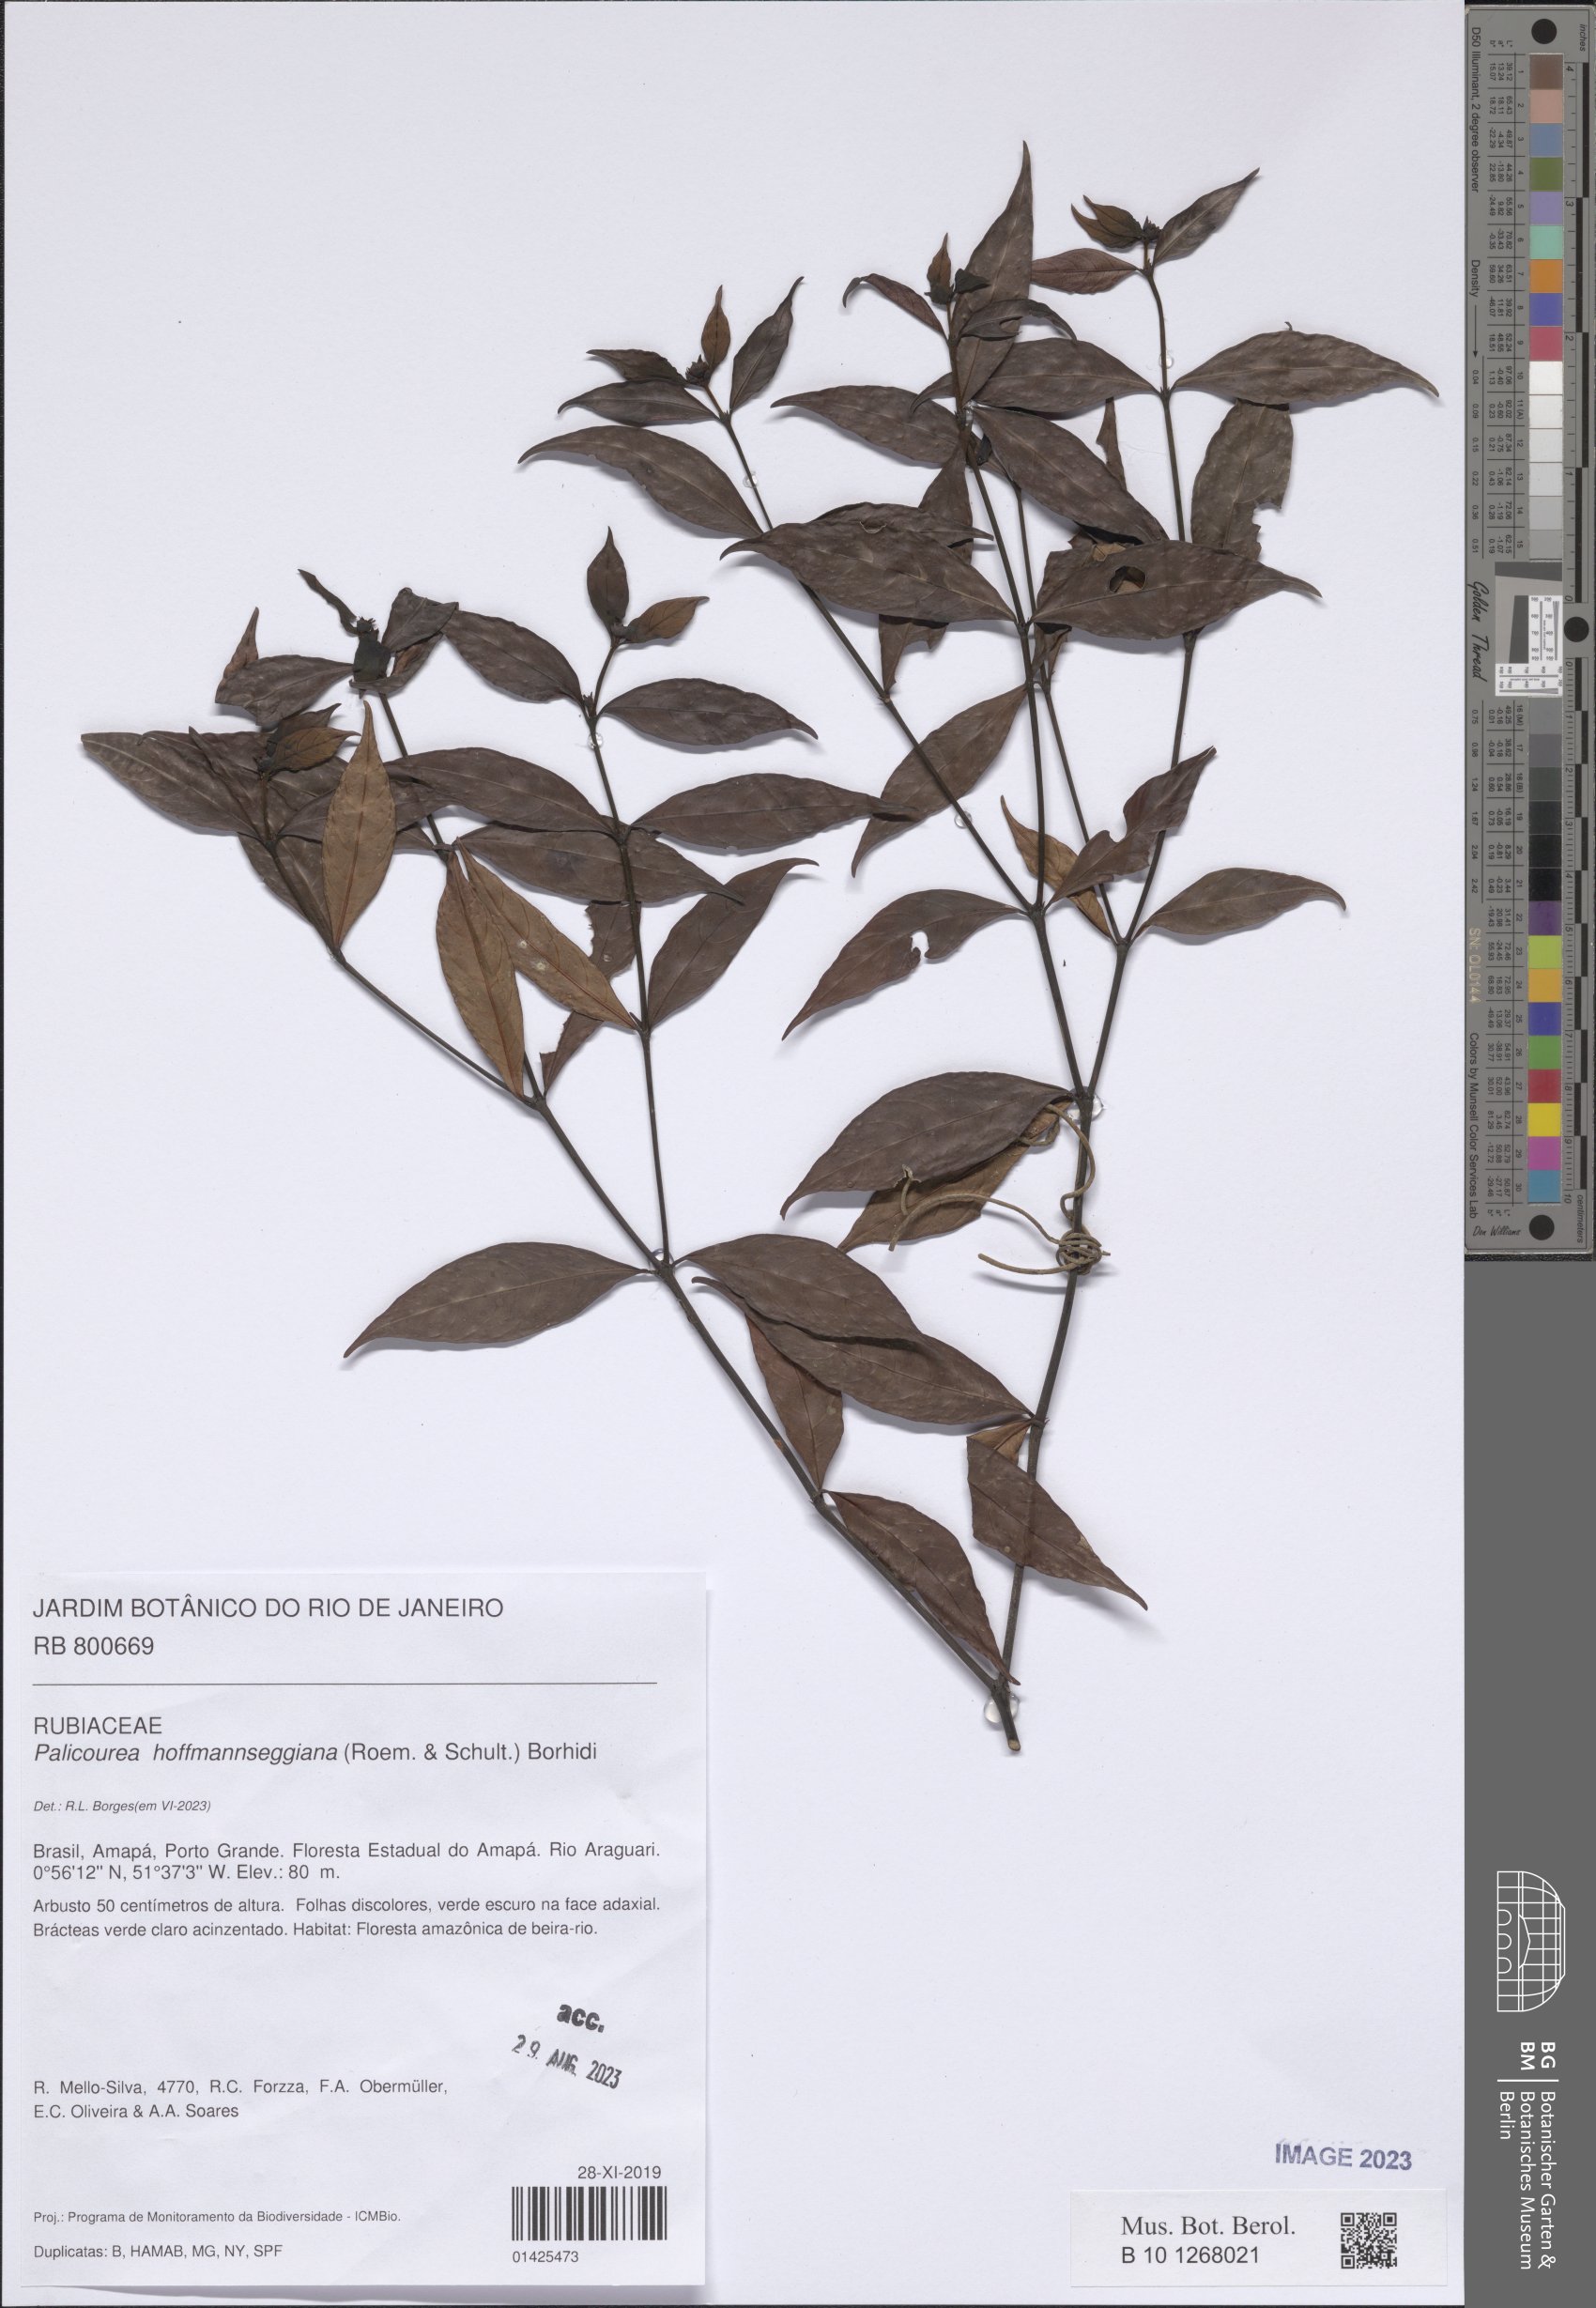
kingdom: Plantae
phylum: Tracheophyta
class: Magnoliopsida
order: Gentianales
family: Rubiaceae
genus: Palicourea
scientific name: Palicourea hoffmannseggiana
